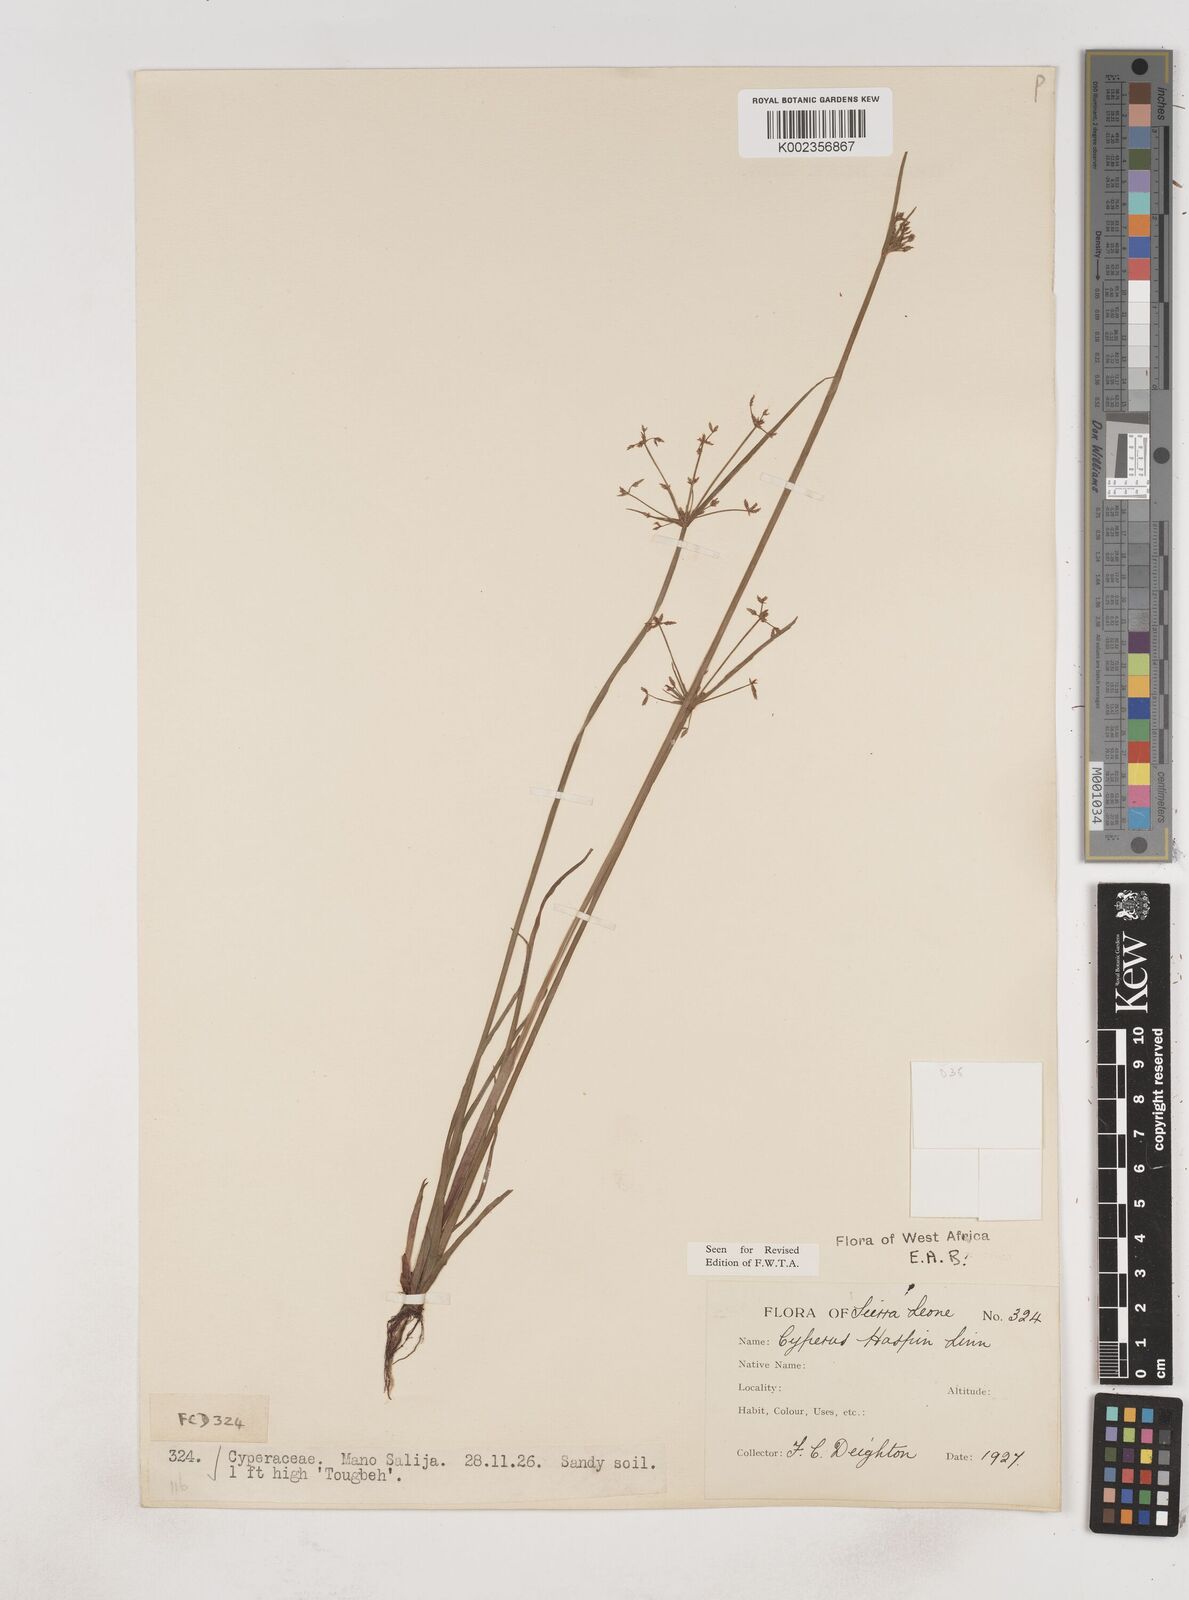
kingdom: Plantae
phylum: Tracheophyta
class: Liliopsida
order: Poales
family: Cyperaceae
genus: Cyperus
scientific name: Cyperus haspan
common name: Haspan flatsedge
